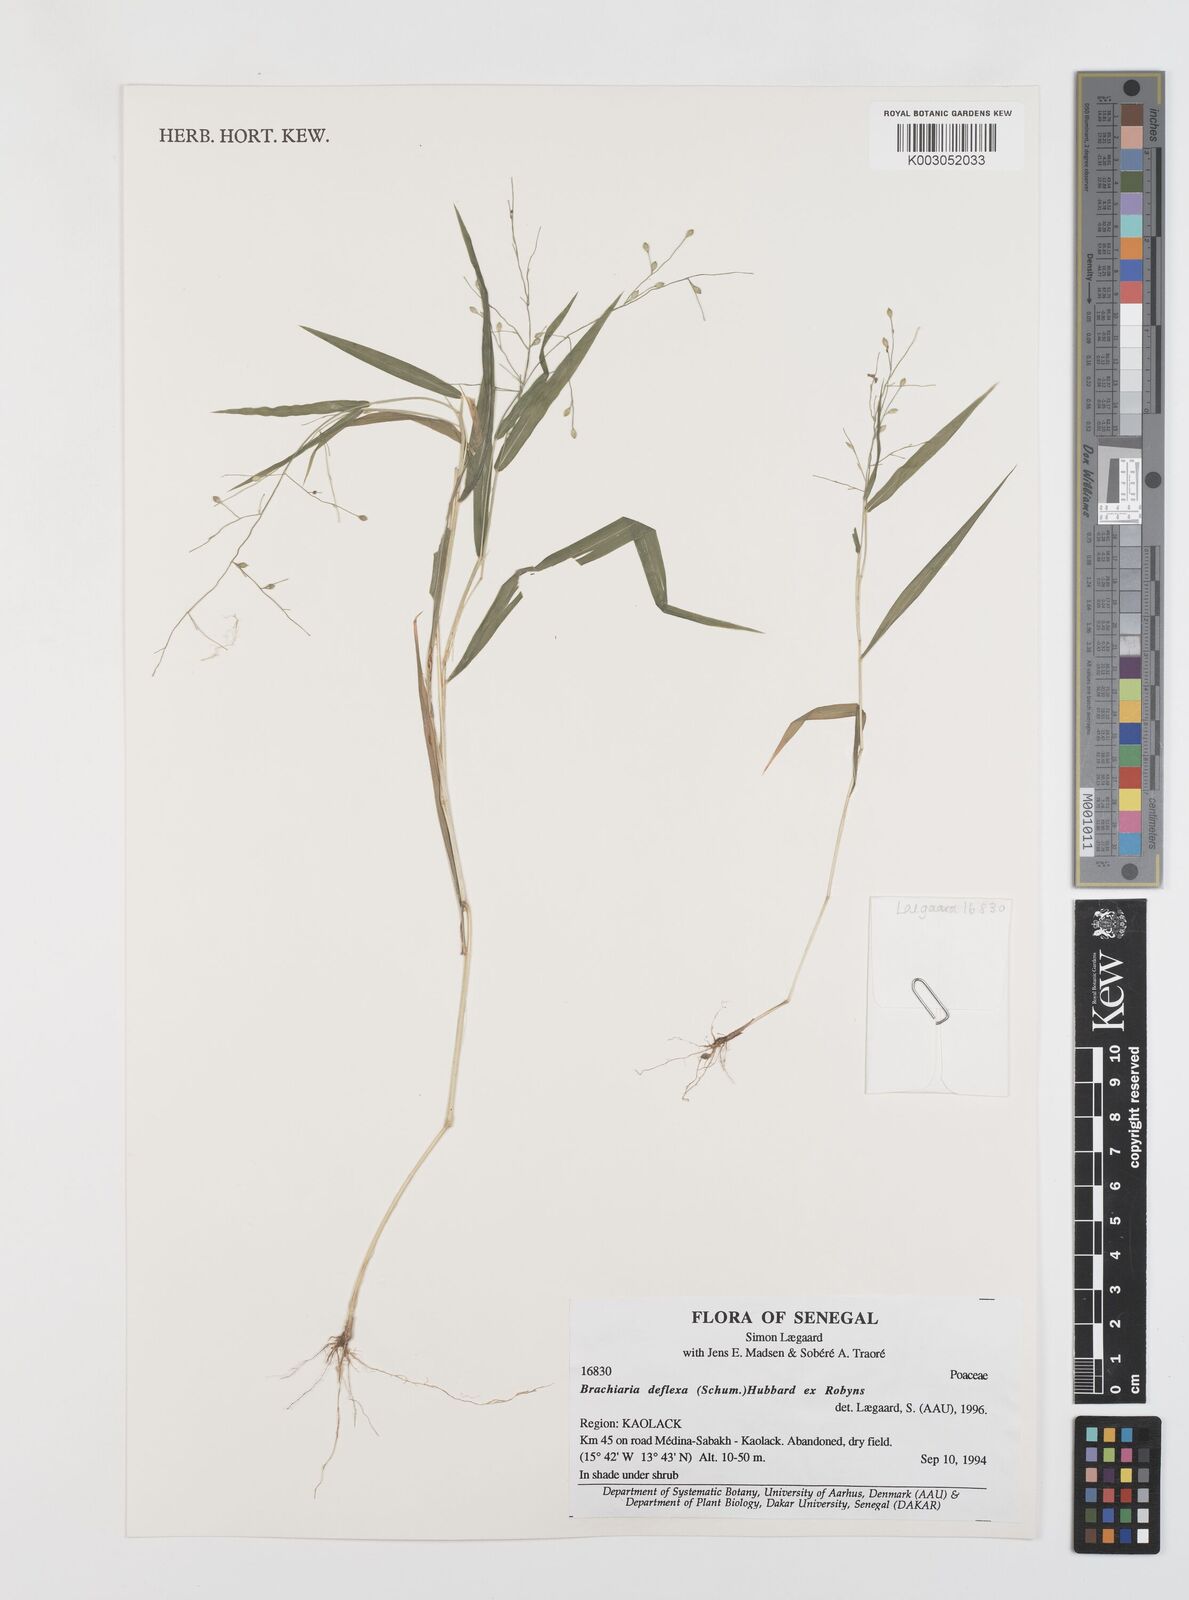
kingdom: Plantae
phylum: Tracheophyta
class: Liliopsida
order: Poales
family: Poaceae
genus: Urochloa
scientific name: Urochloa deflexa
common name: Guinea millet
